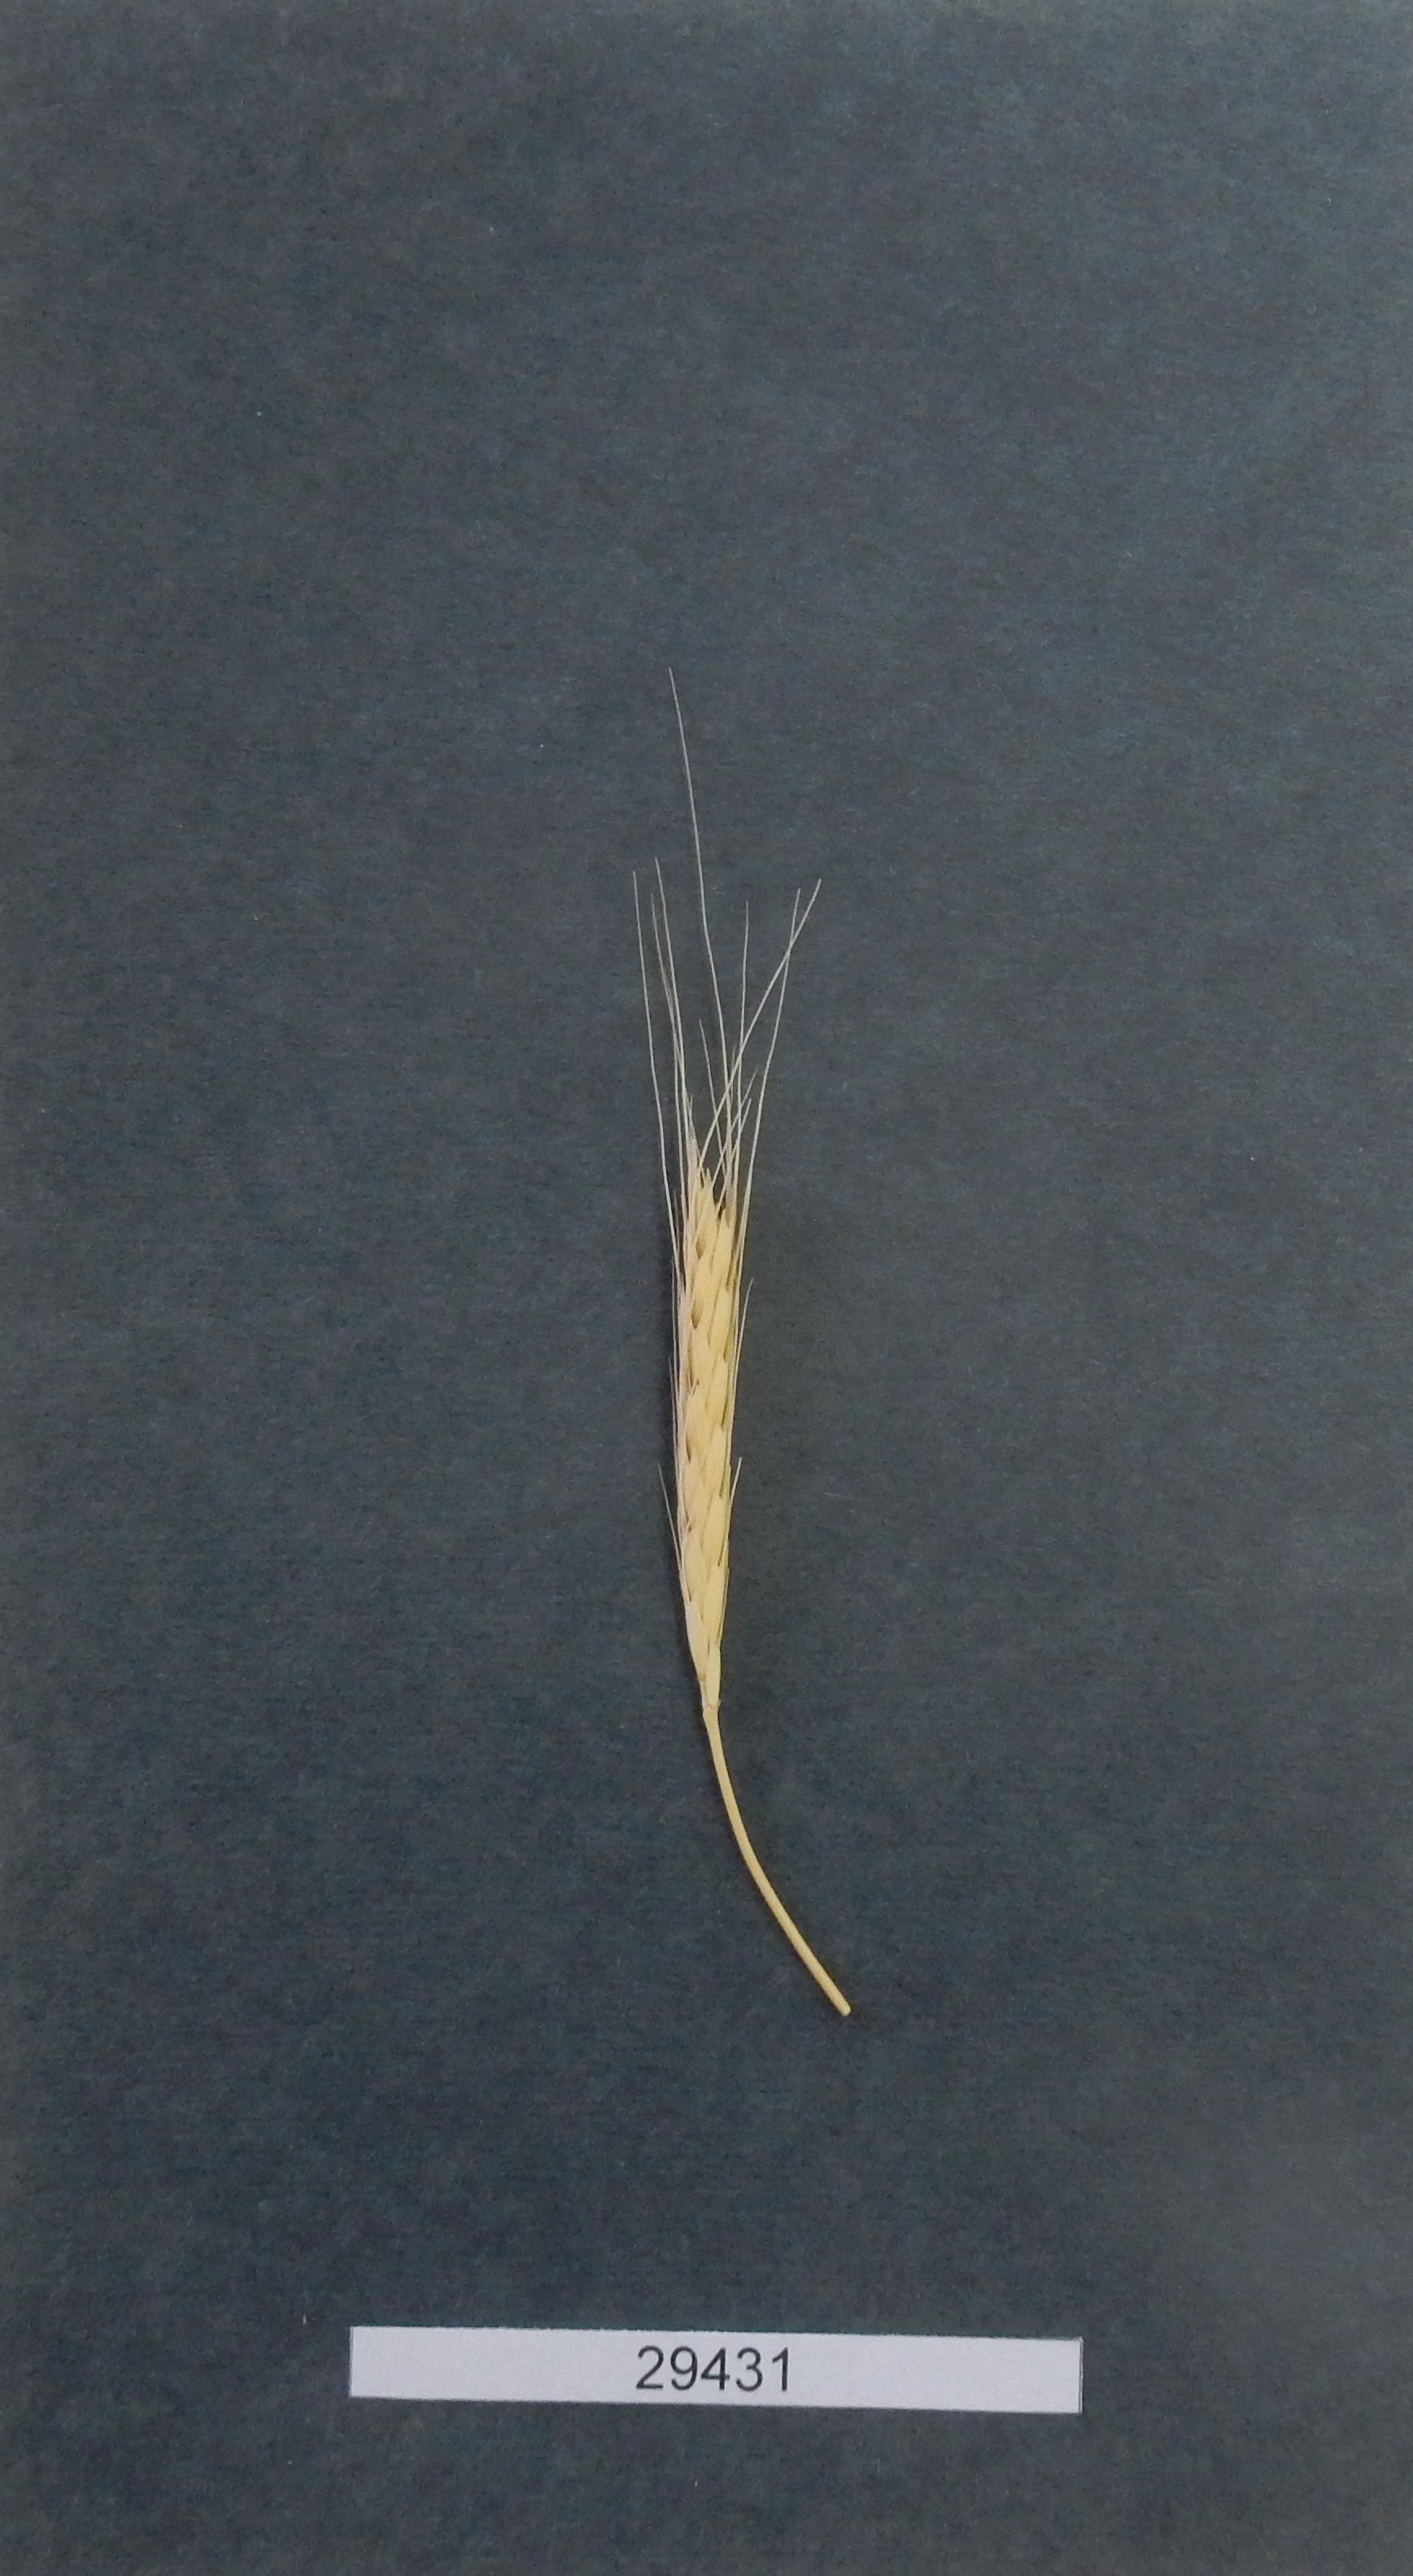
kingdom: Plantae
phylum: Tracheophyta
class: Liliopsida
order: Poales
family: Poaceae
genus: Triticum
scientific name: Triticum urartu
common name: Red wild einkorn
